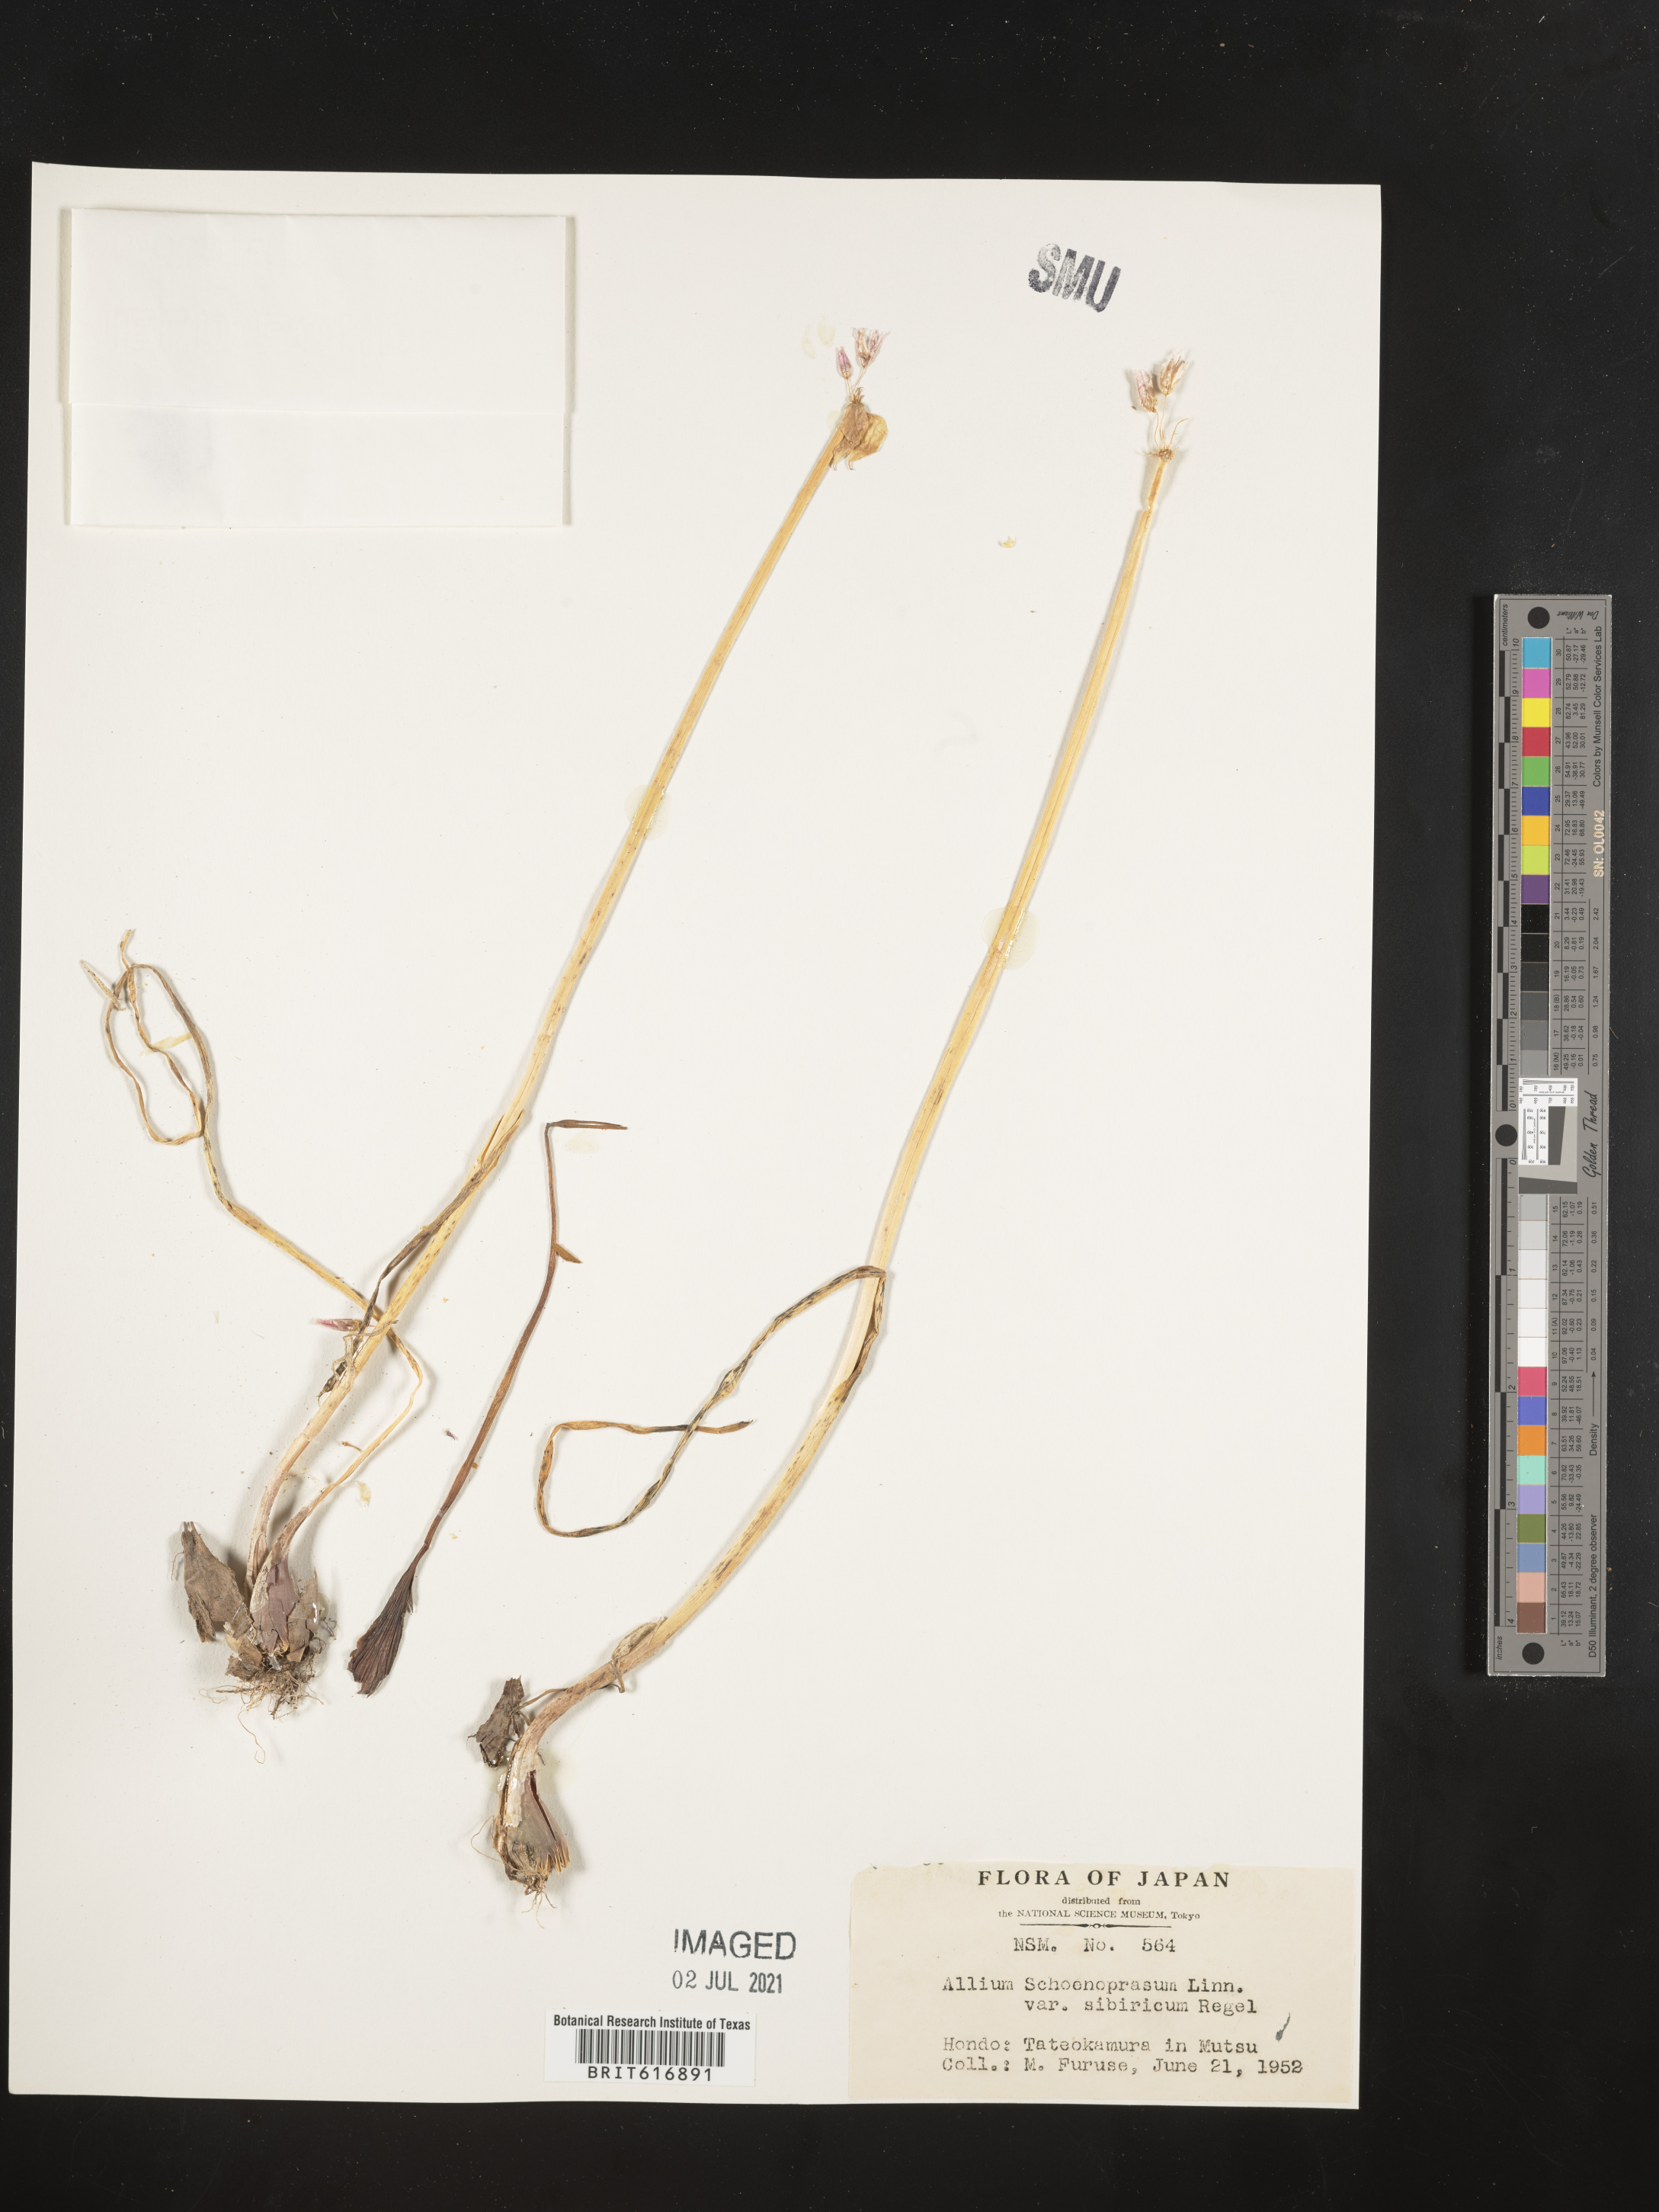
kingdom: Plantae
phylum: Tracheophyta
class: Liliopsida
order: Asparagales
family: Amaryllidaceae
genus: Allium
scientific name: Allium schoenoprasum
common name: Chives
